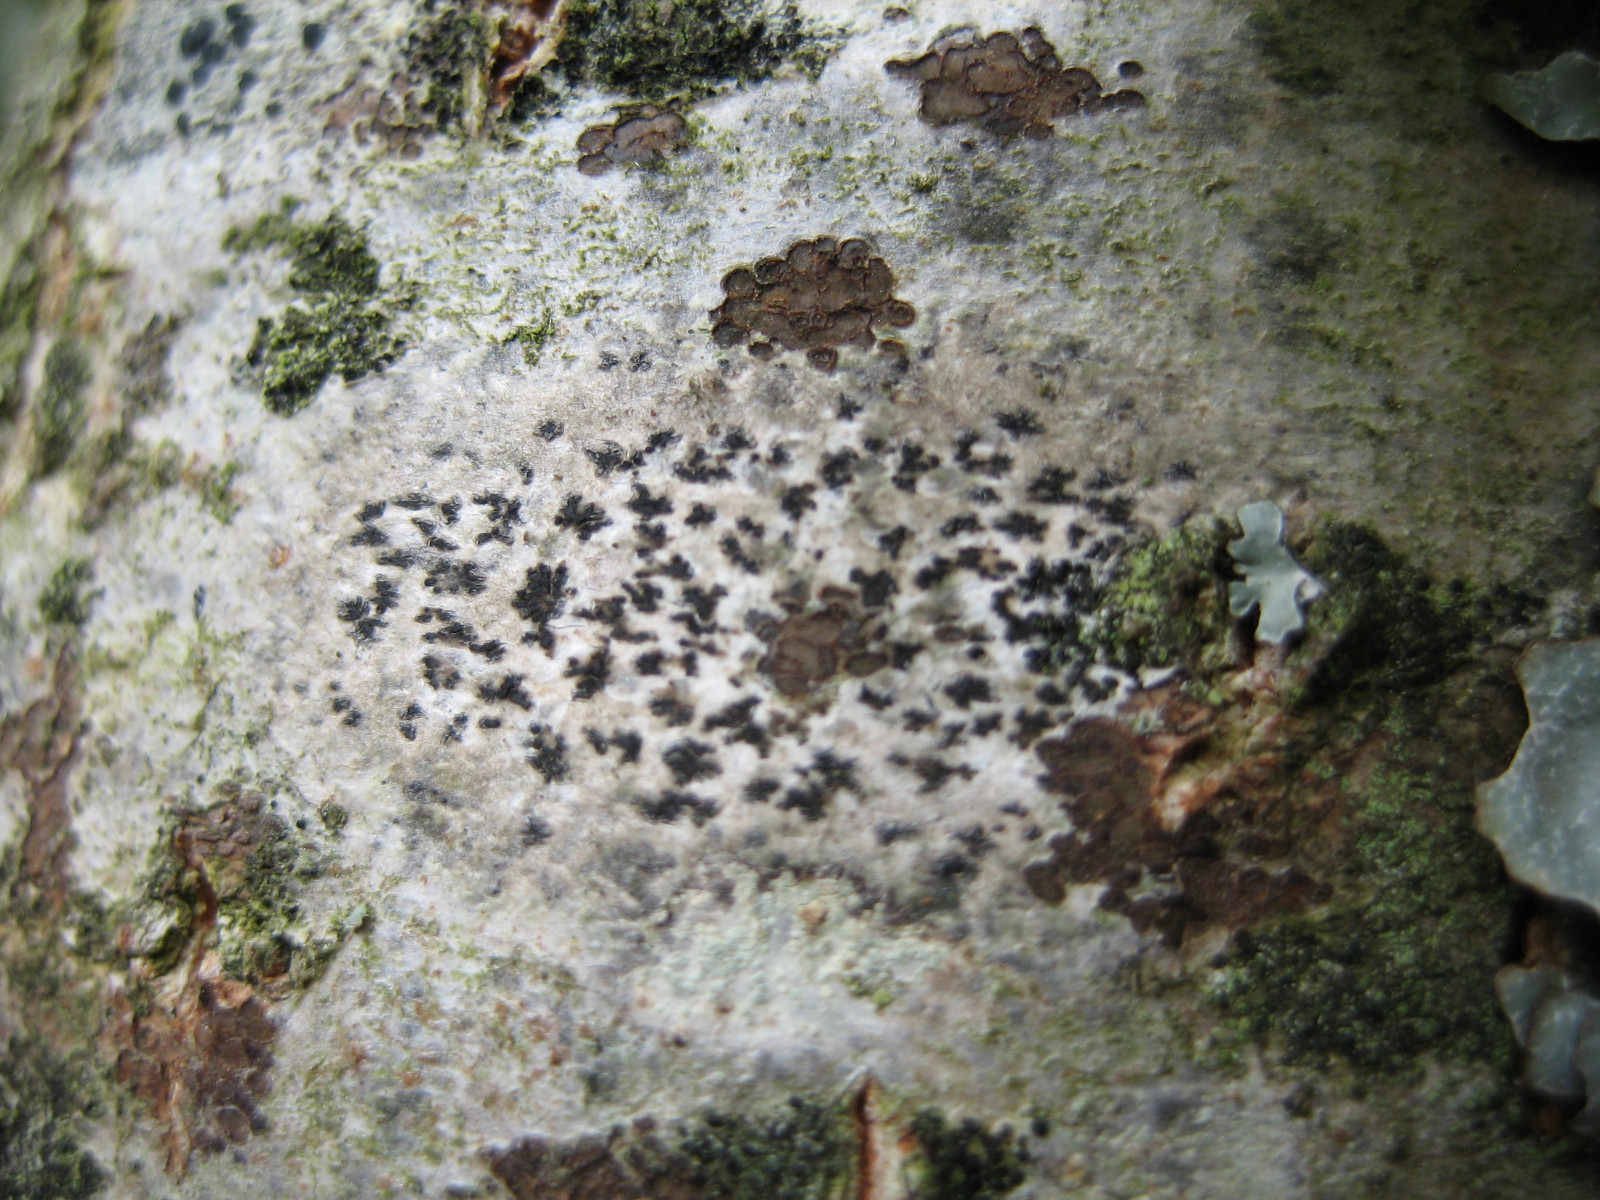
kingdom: Fungi
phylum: Ascomycota
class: Arthoniomycetes
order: Arthoniales
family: Arthoniaceae
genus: Arthonia
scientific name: Arthonia radiata
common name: stjerne-pletlav
